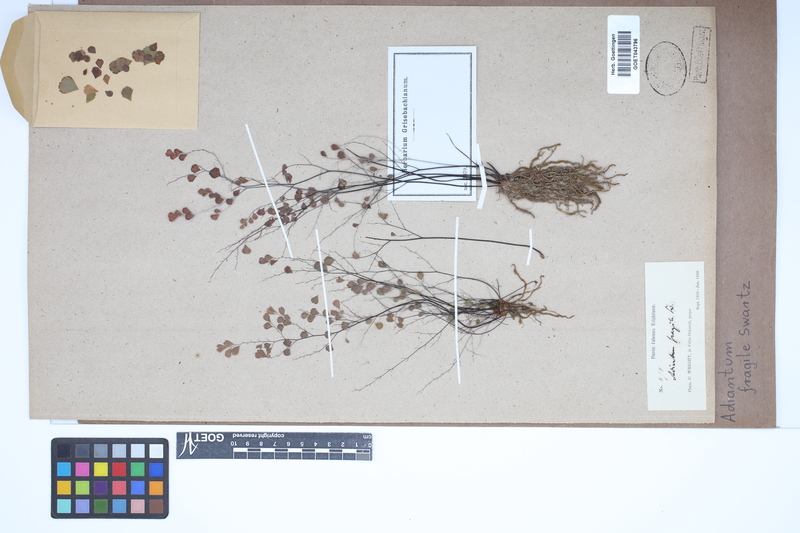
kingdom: Plantae
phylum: Tracheophyta
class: Polypodiopsida
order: Polypodiales
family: Pteridaceae
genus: Adiantum
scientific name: Adiantum fragile
